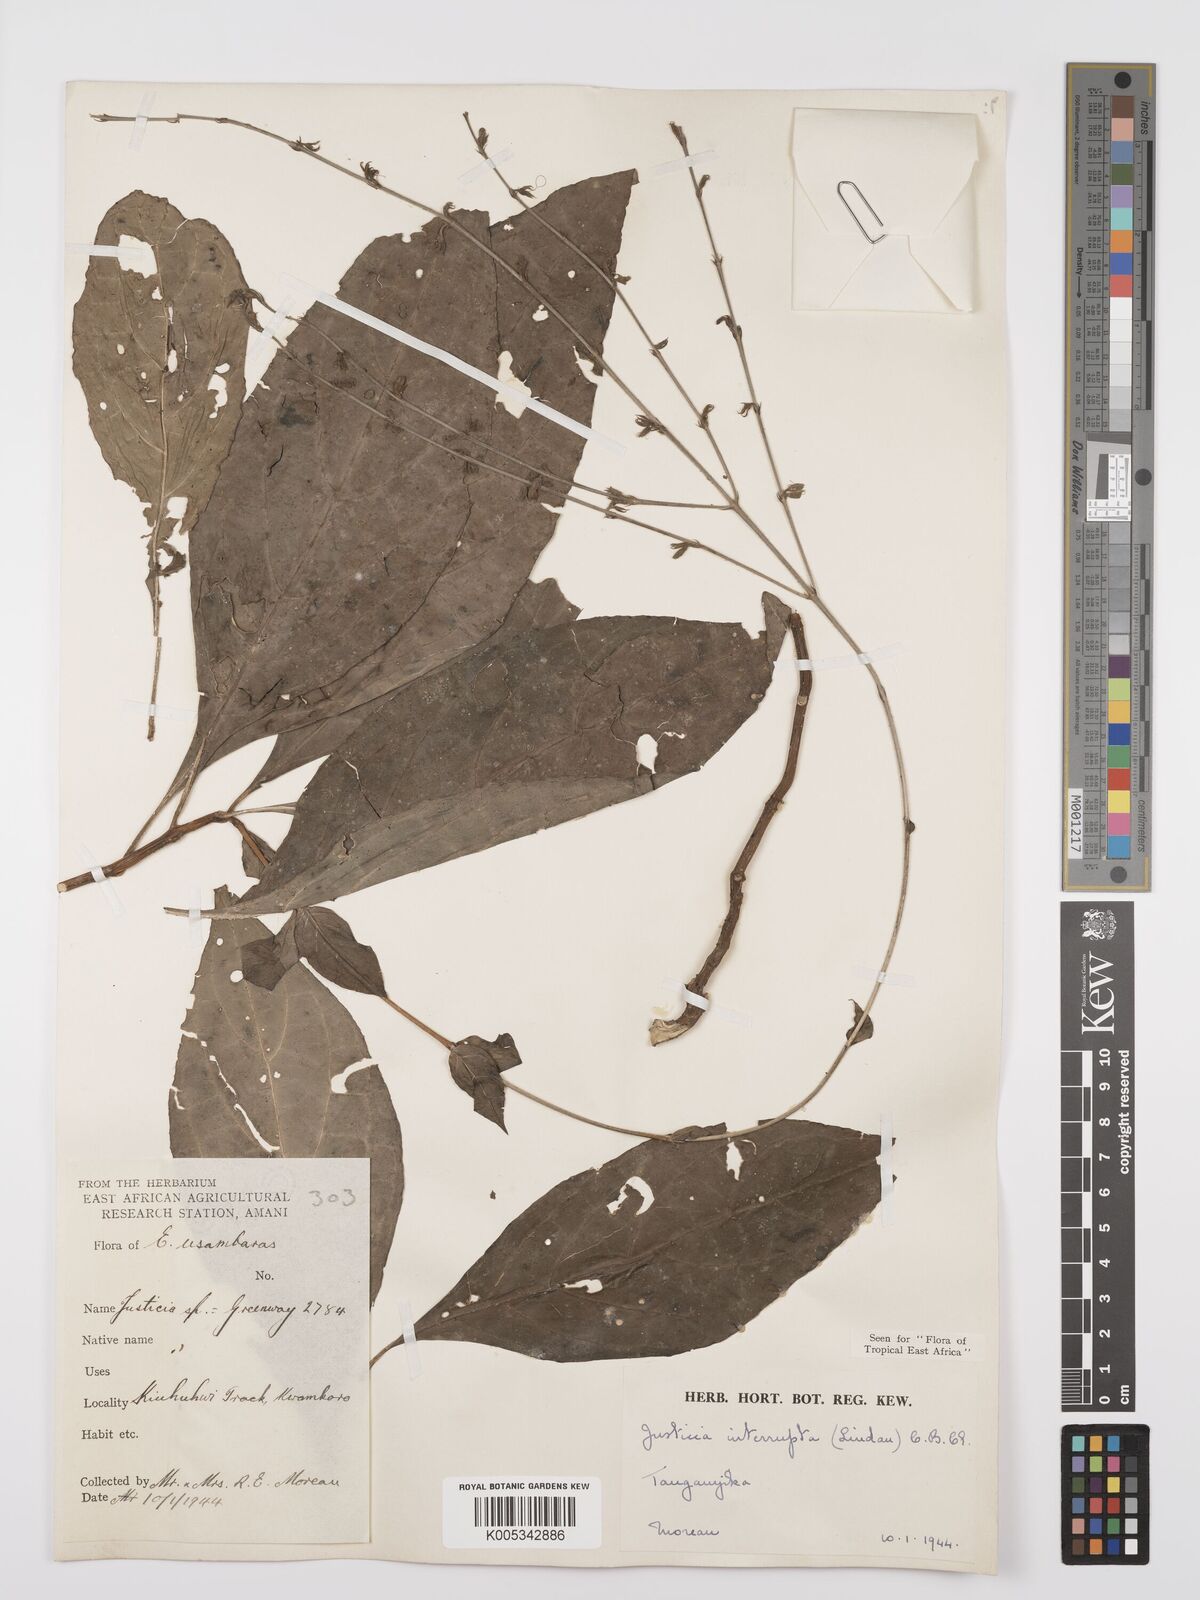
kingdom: Plantae
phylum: Tracheophyta
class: Magnoliopsida
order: Lamiales
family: Acanthaceae
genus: Justicia
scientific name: Justicia plectranthoides
